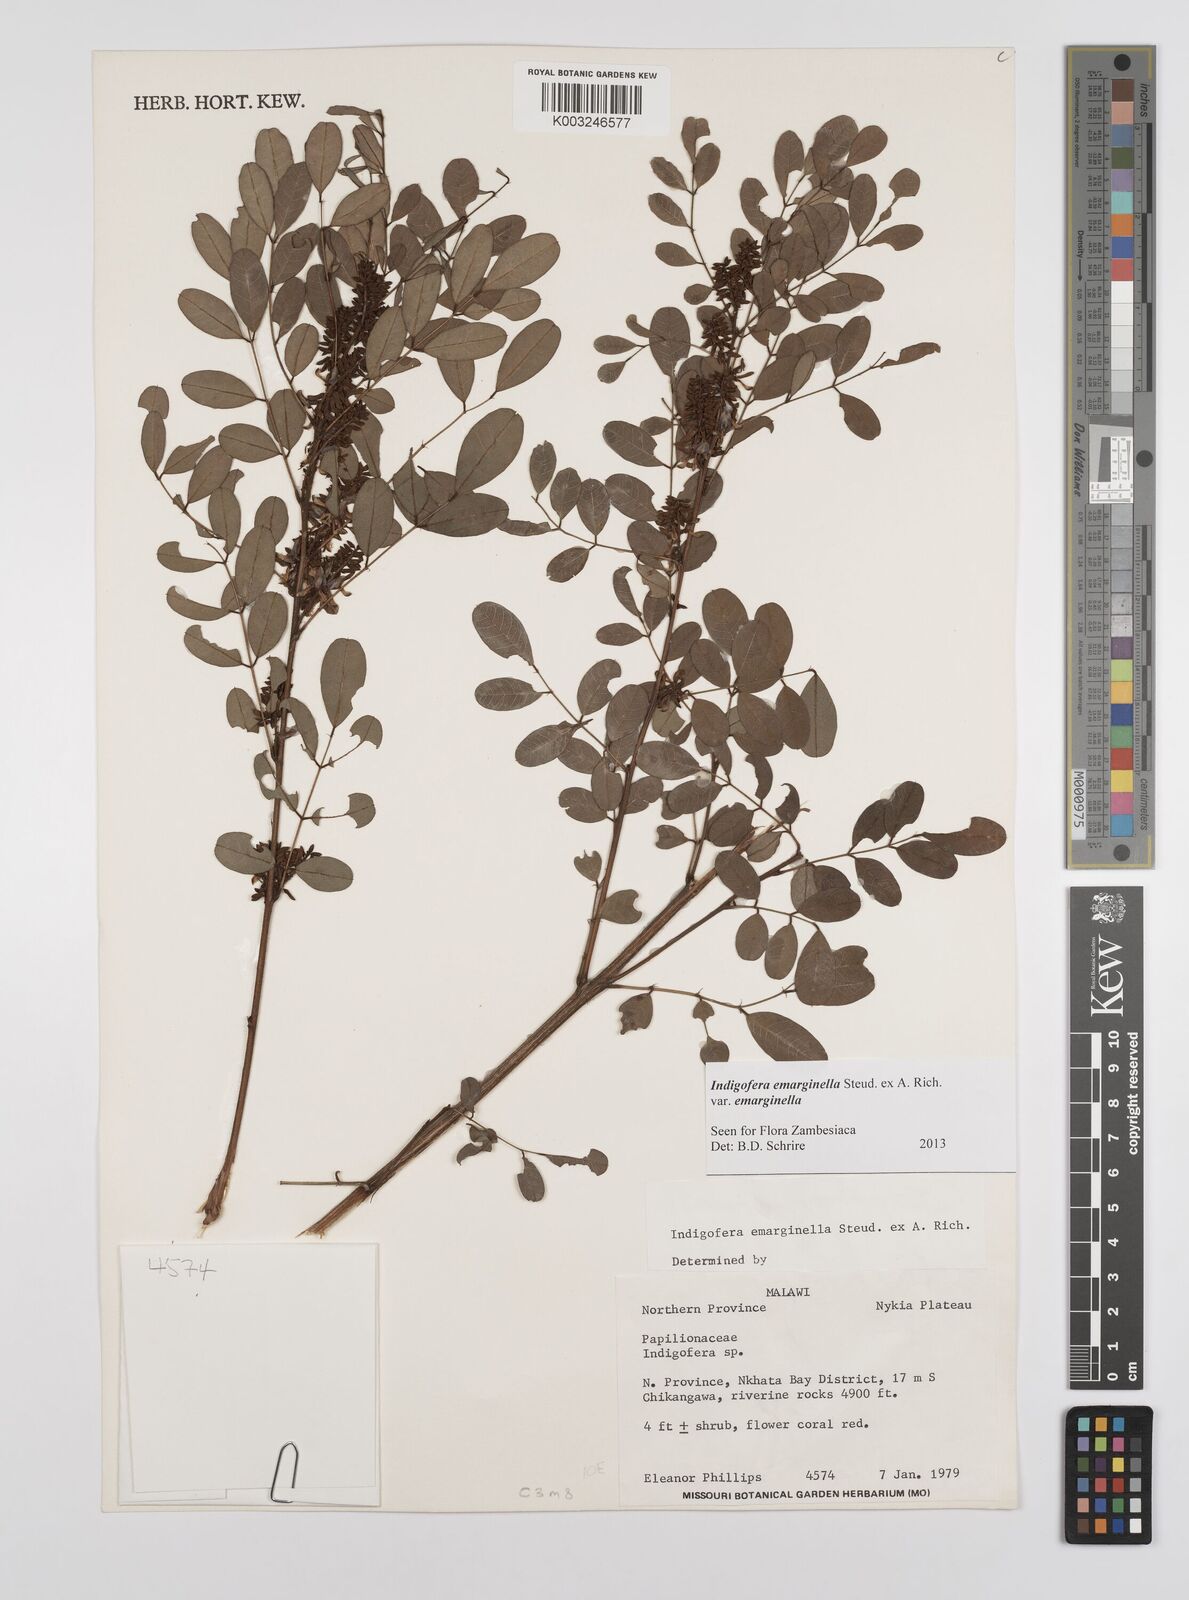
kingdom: Plantae
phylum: Tracheophyta
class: Magnoliopsida
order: Fabales
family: Fabaceae
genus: Indigofera
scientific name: Indigofera emarginella
